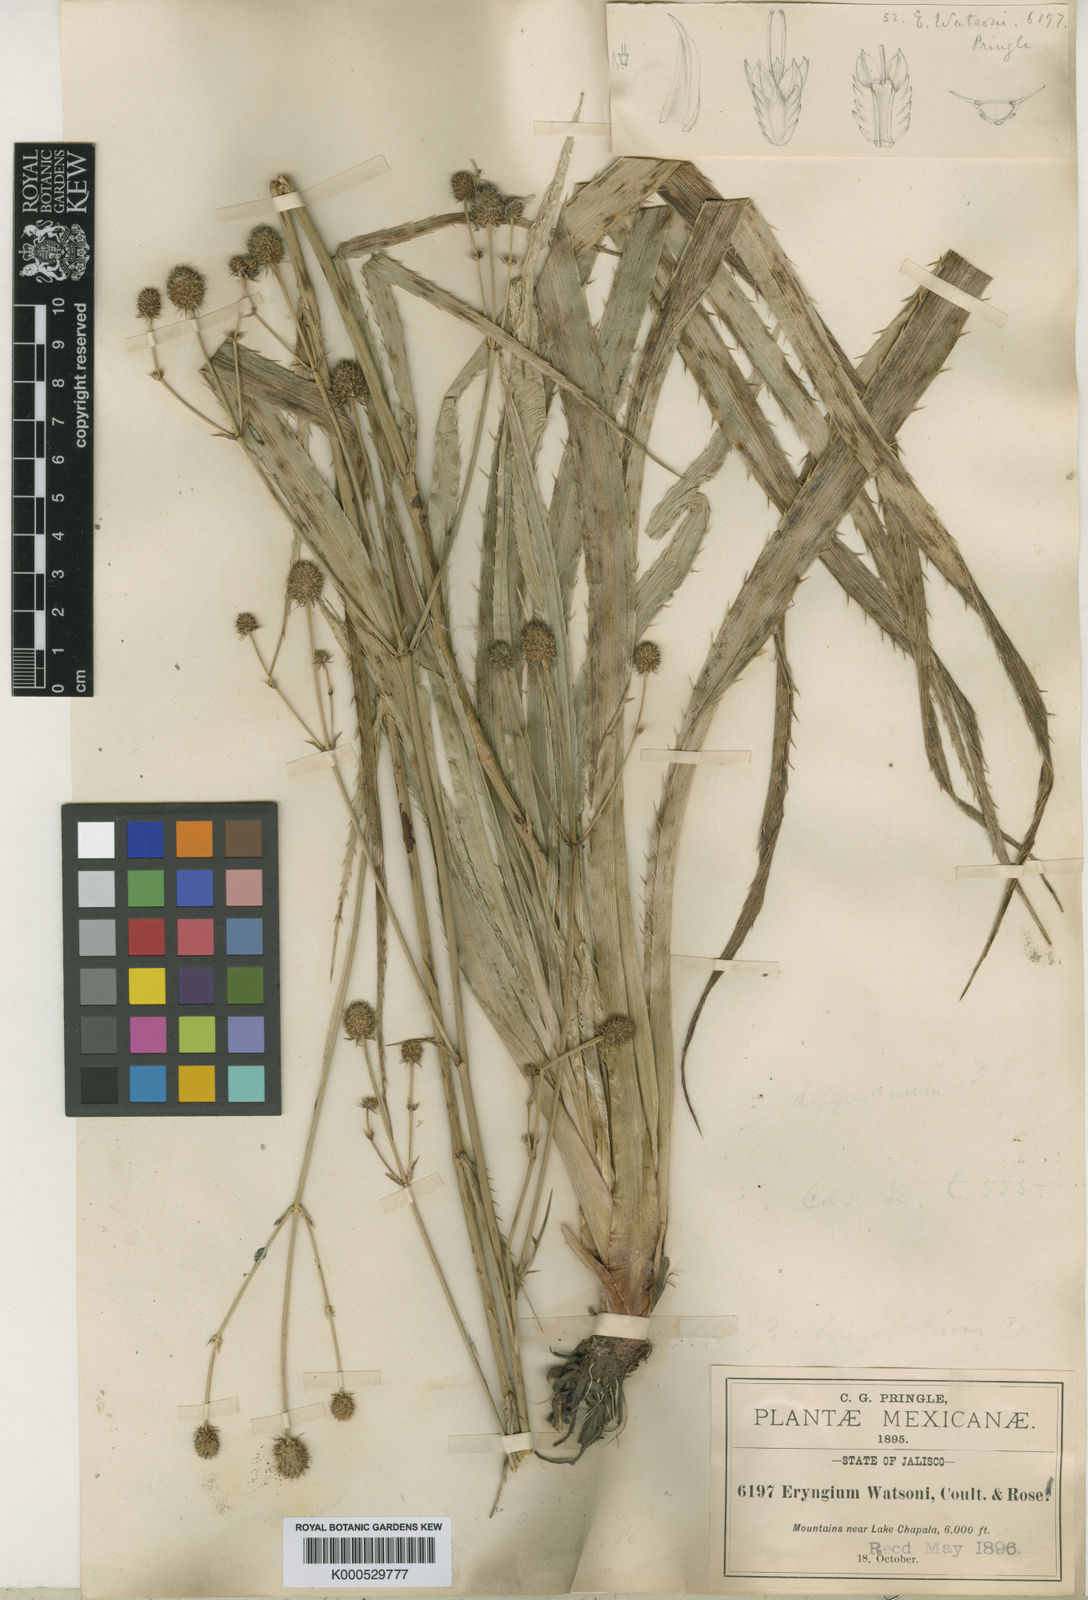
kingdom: Plantae
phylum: Tracheophyta
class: Magnoliopsida
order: Apiales
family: Apiaceae
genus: Eryngium
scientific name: Eryngium longifolium
